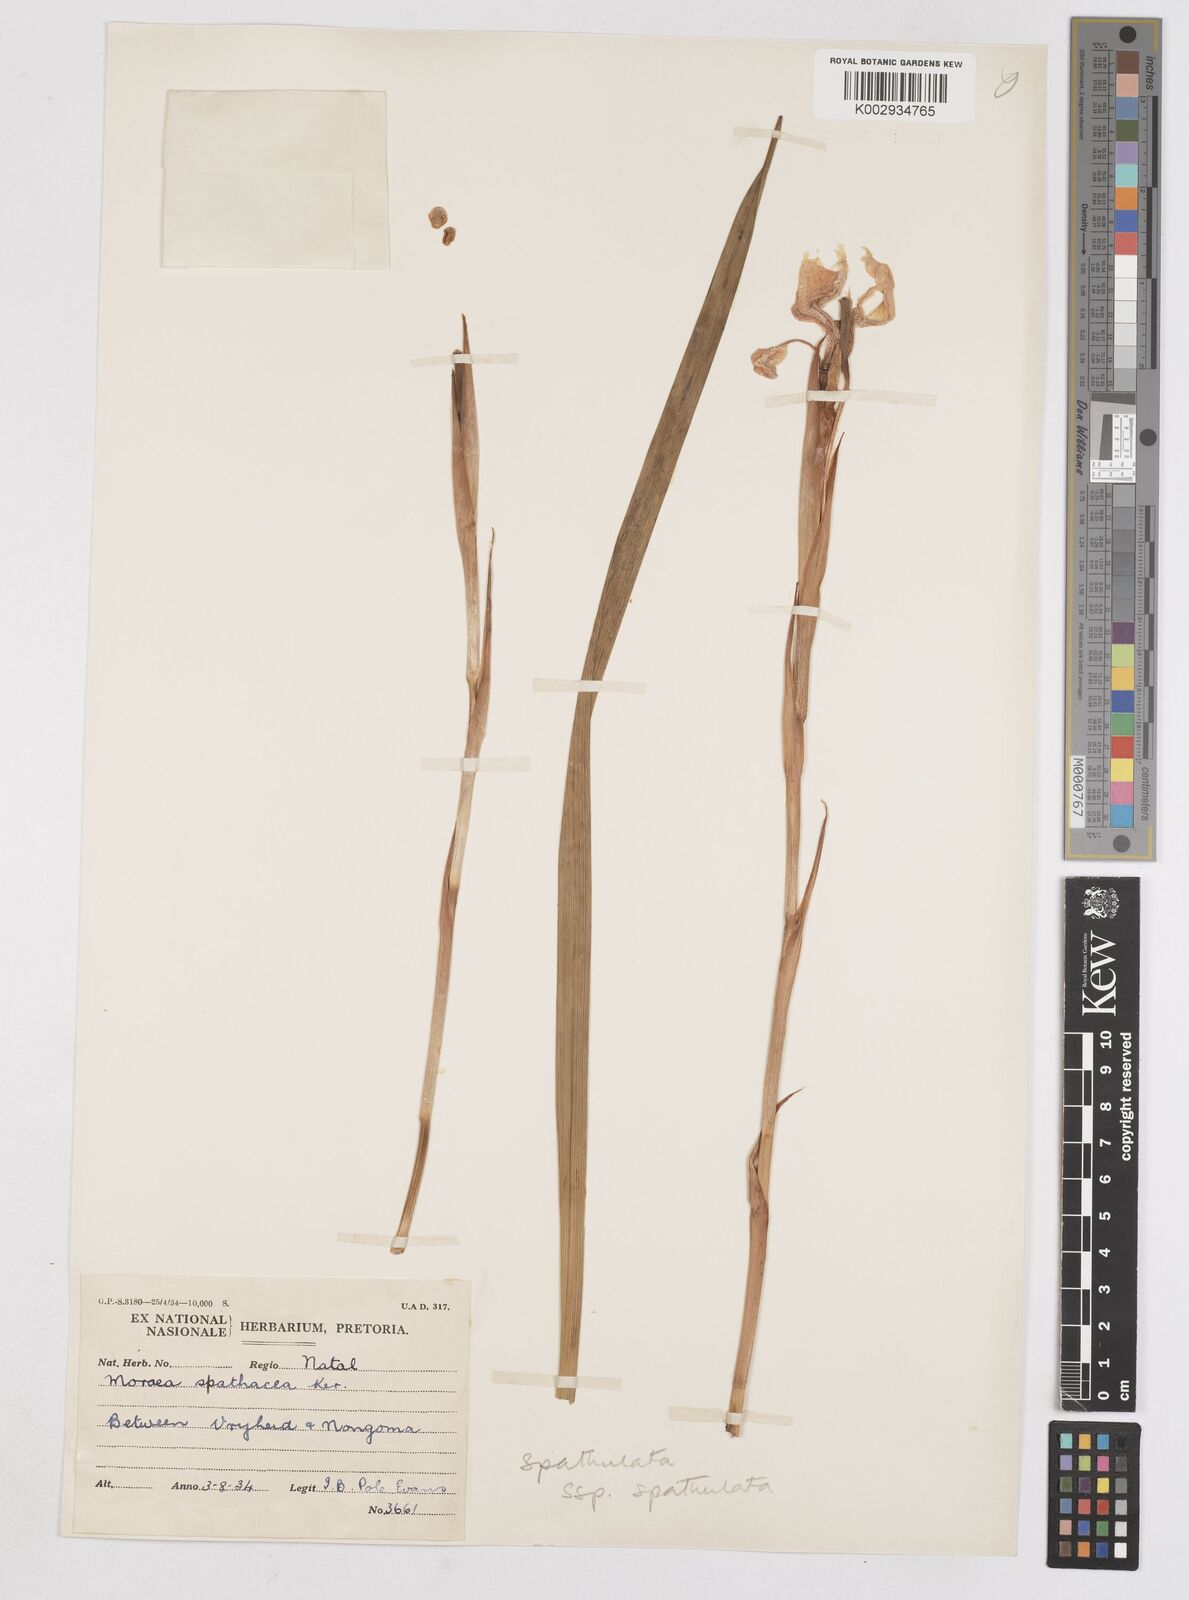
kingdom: Plantae
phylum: Tracheophyta
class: Liliopsida
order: Asparagales
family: Iridaceae
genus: Moraea
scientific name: Moraea spathulata
